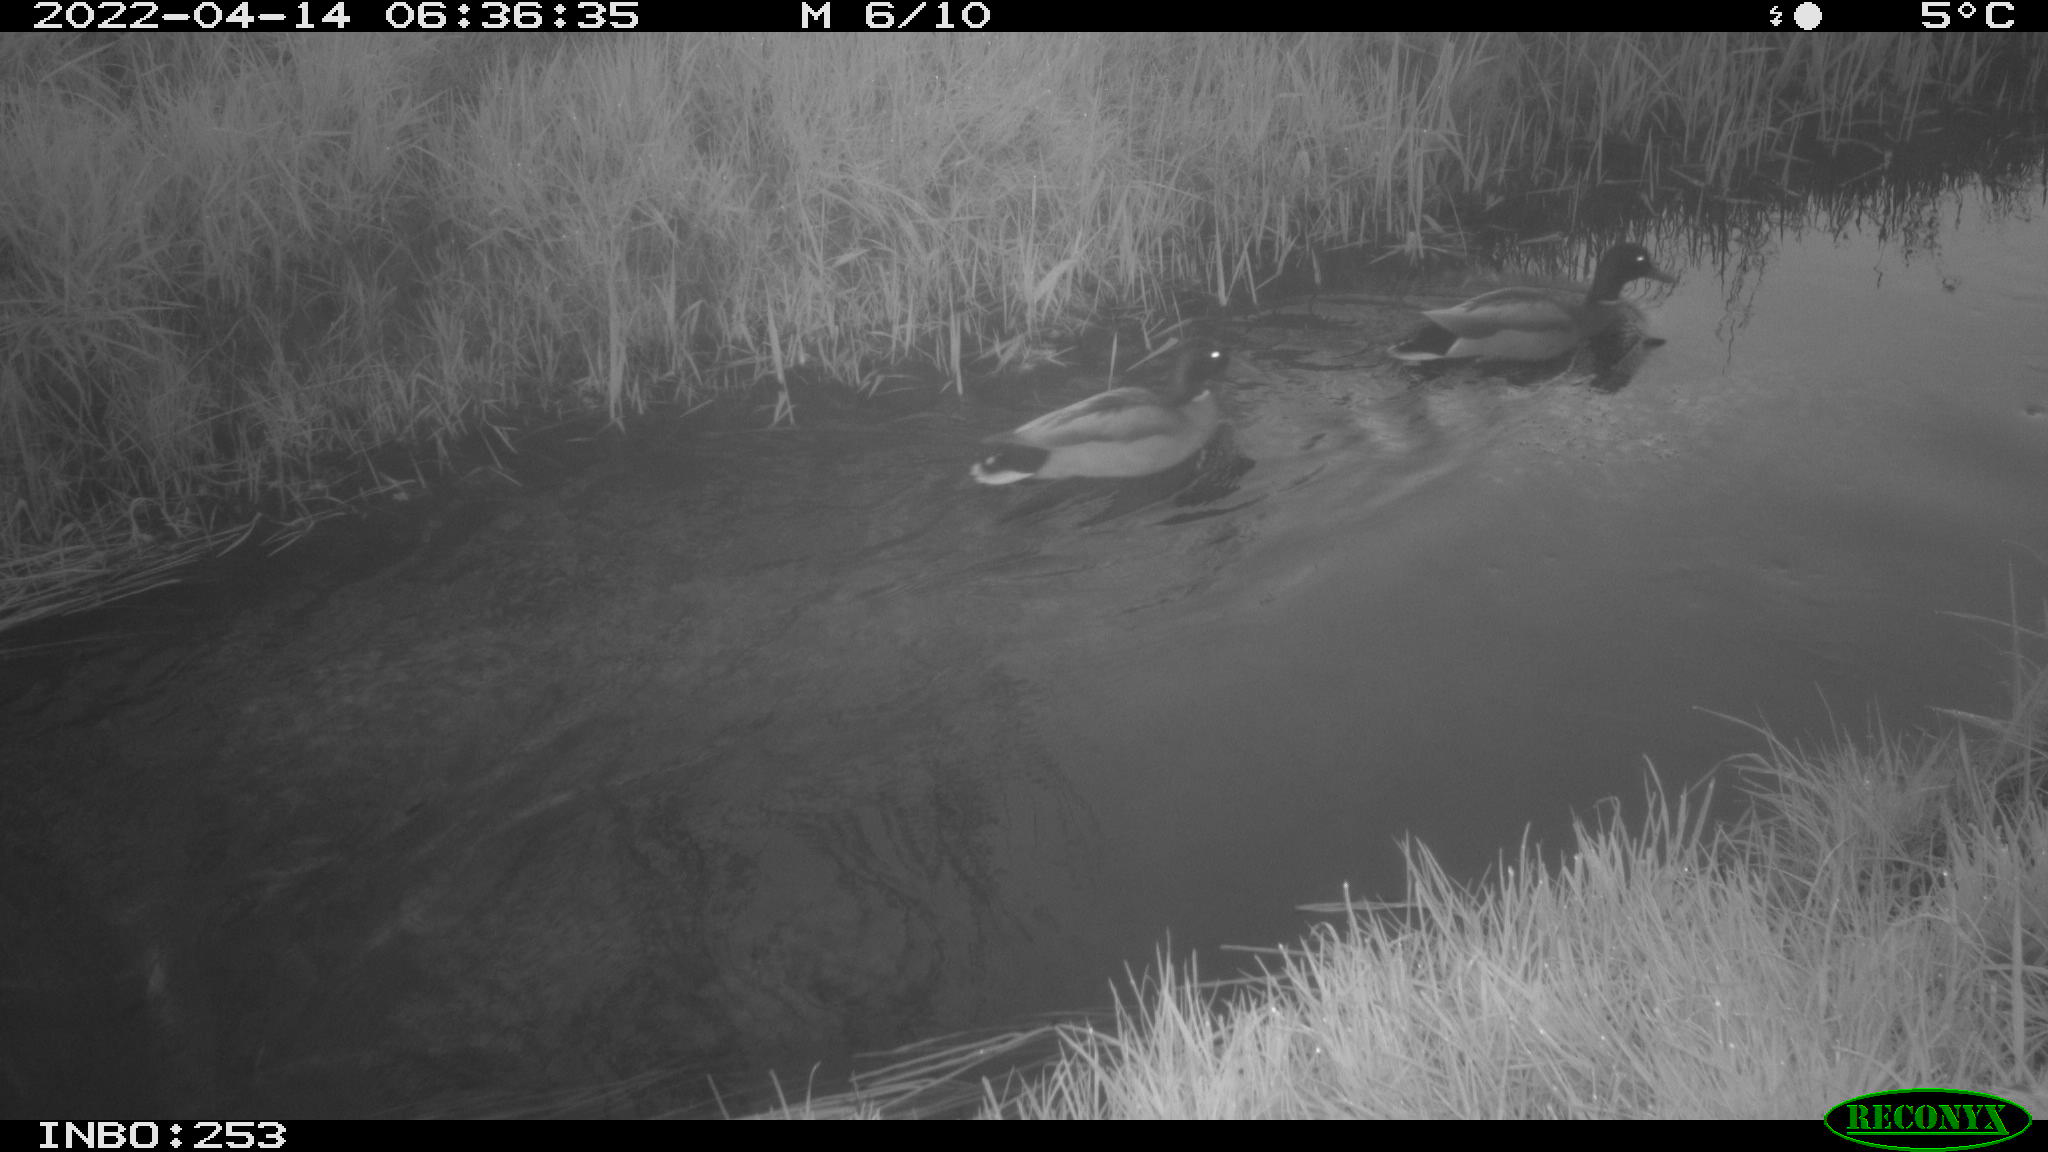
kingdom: Animalia
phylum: Chordata
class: Aves
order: Anseriformes
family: Anatidae
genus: Anas
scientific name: Anas platyrhynchos
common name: Mallard
